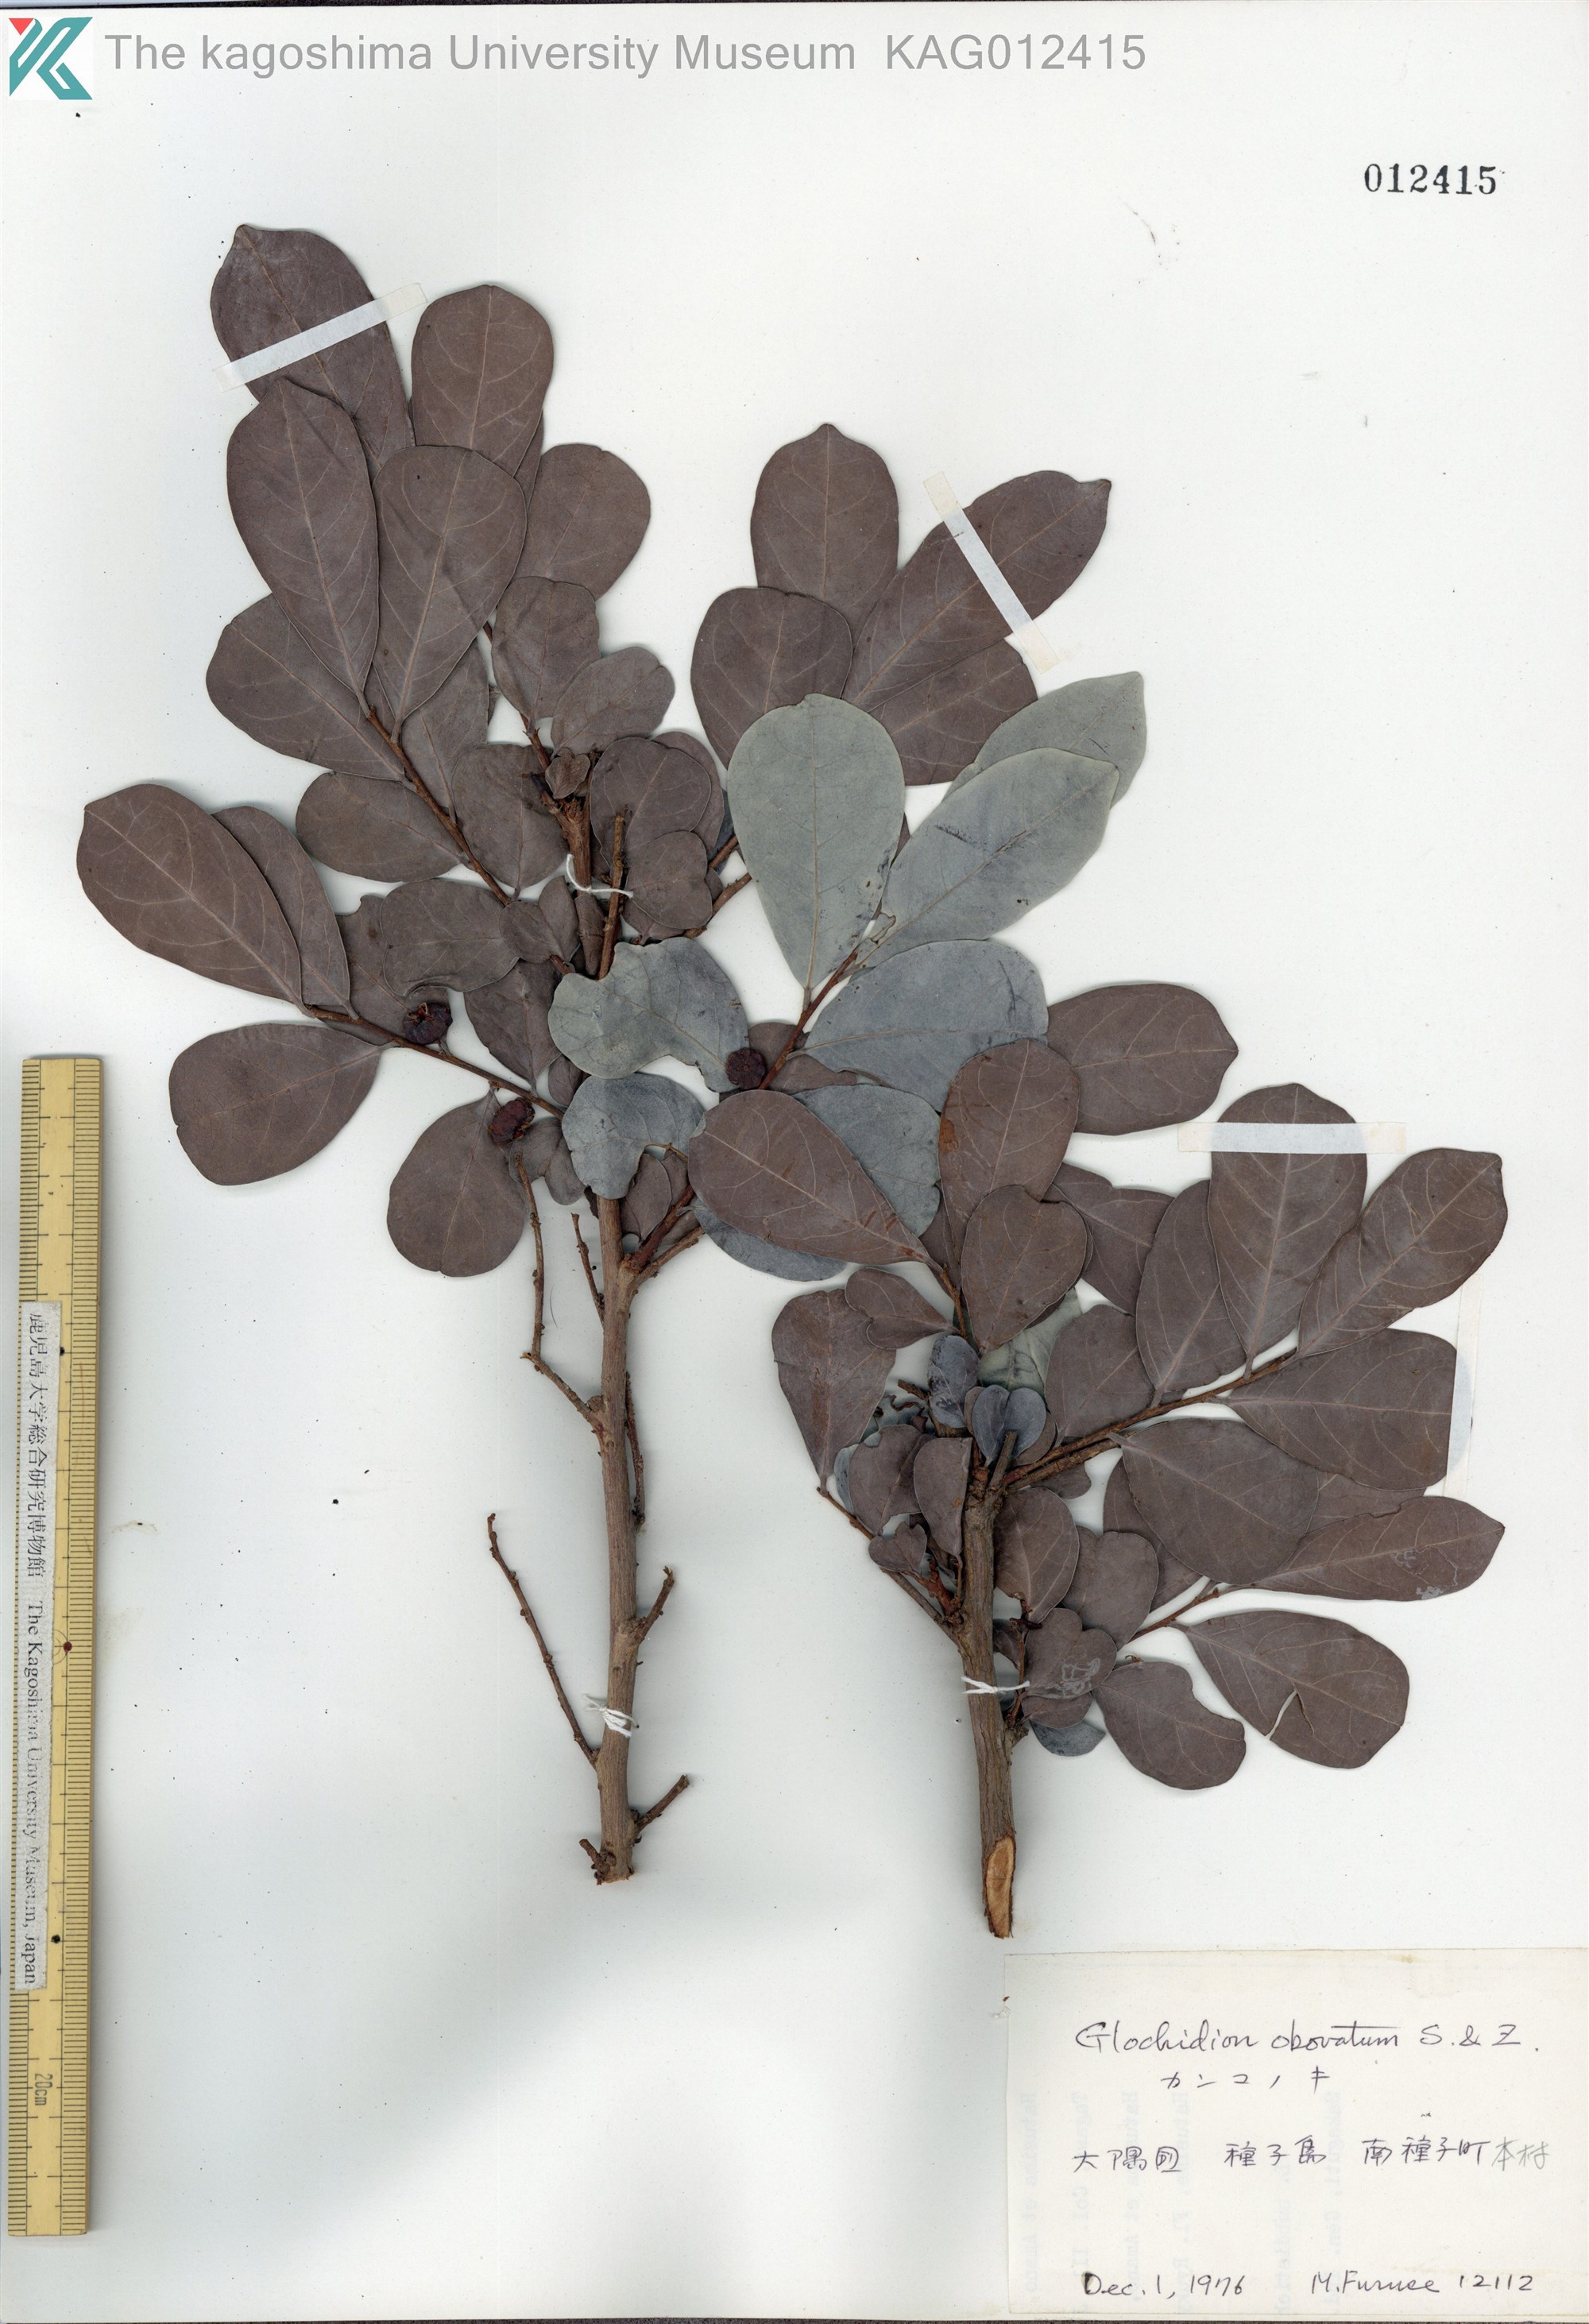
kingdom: Plantae
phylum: Tracheophyta
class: Magnoliopsida
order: Malpighiales
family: Phyllanthaceae
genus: Glochidion
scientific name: Glochidion obovatum
